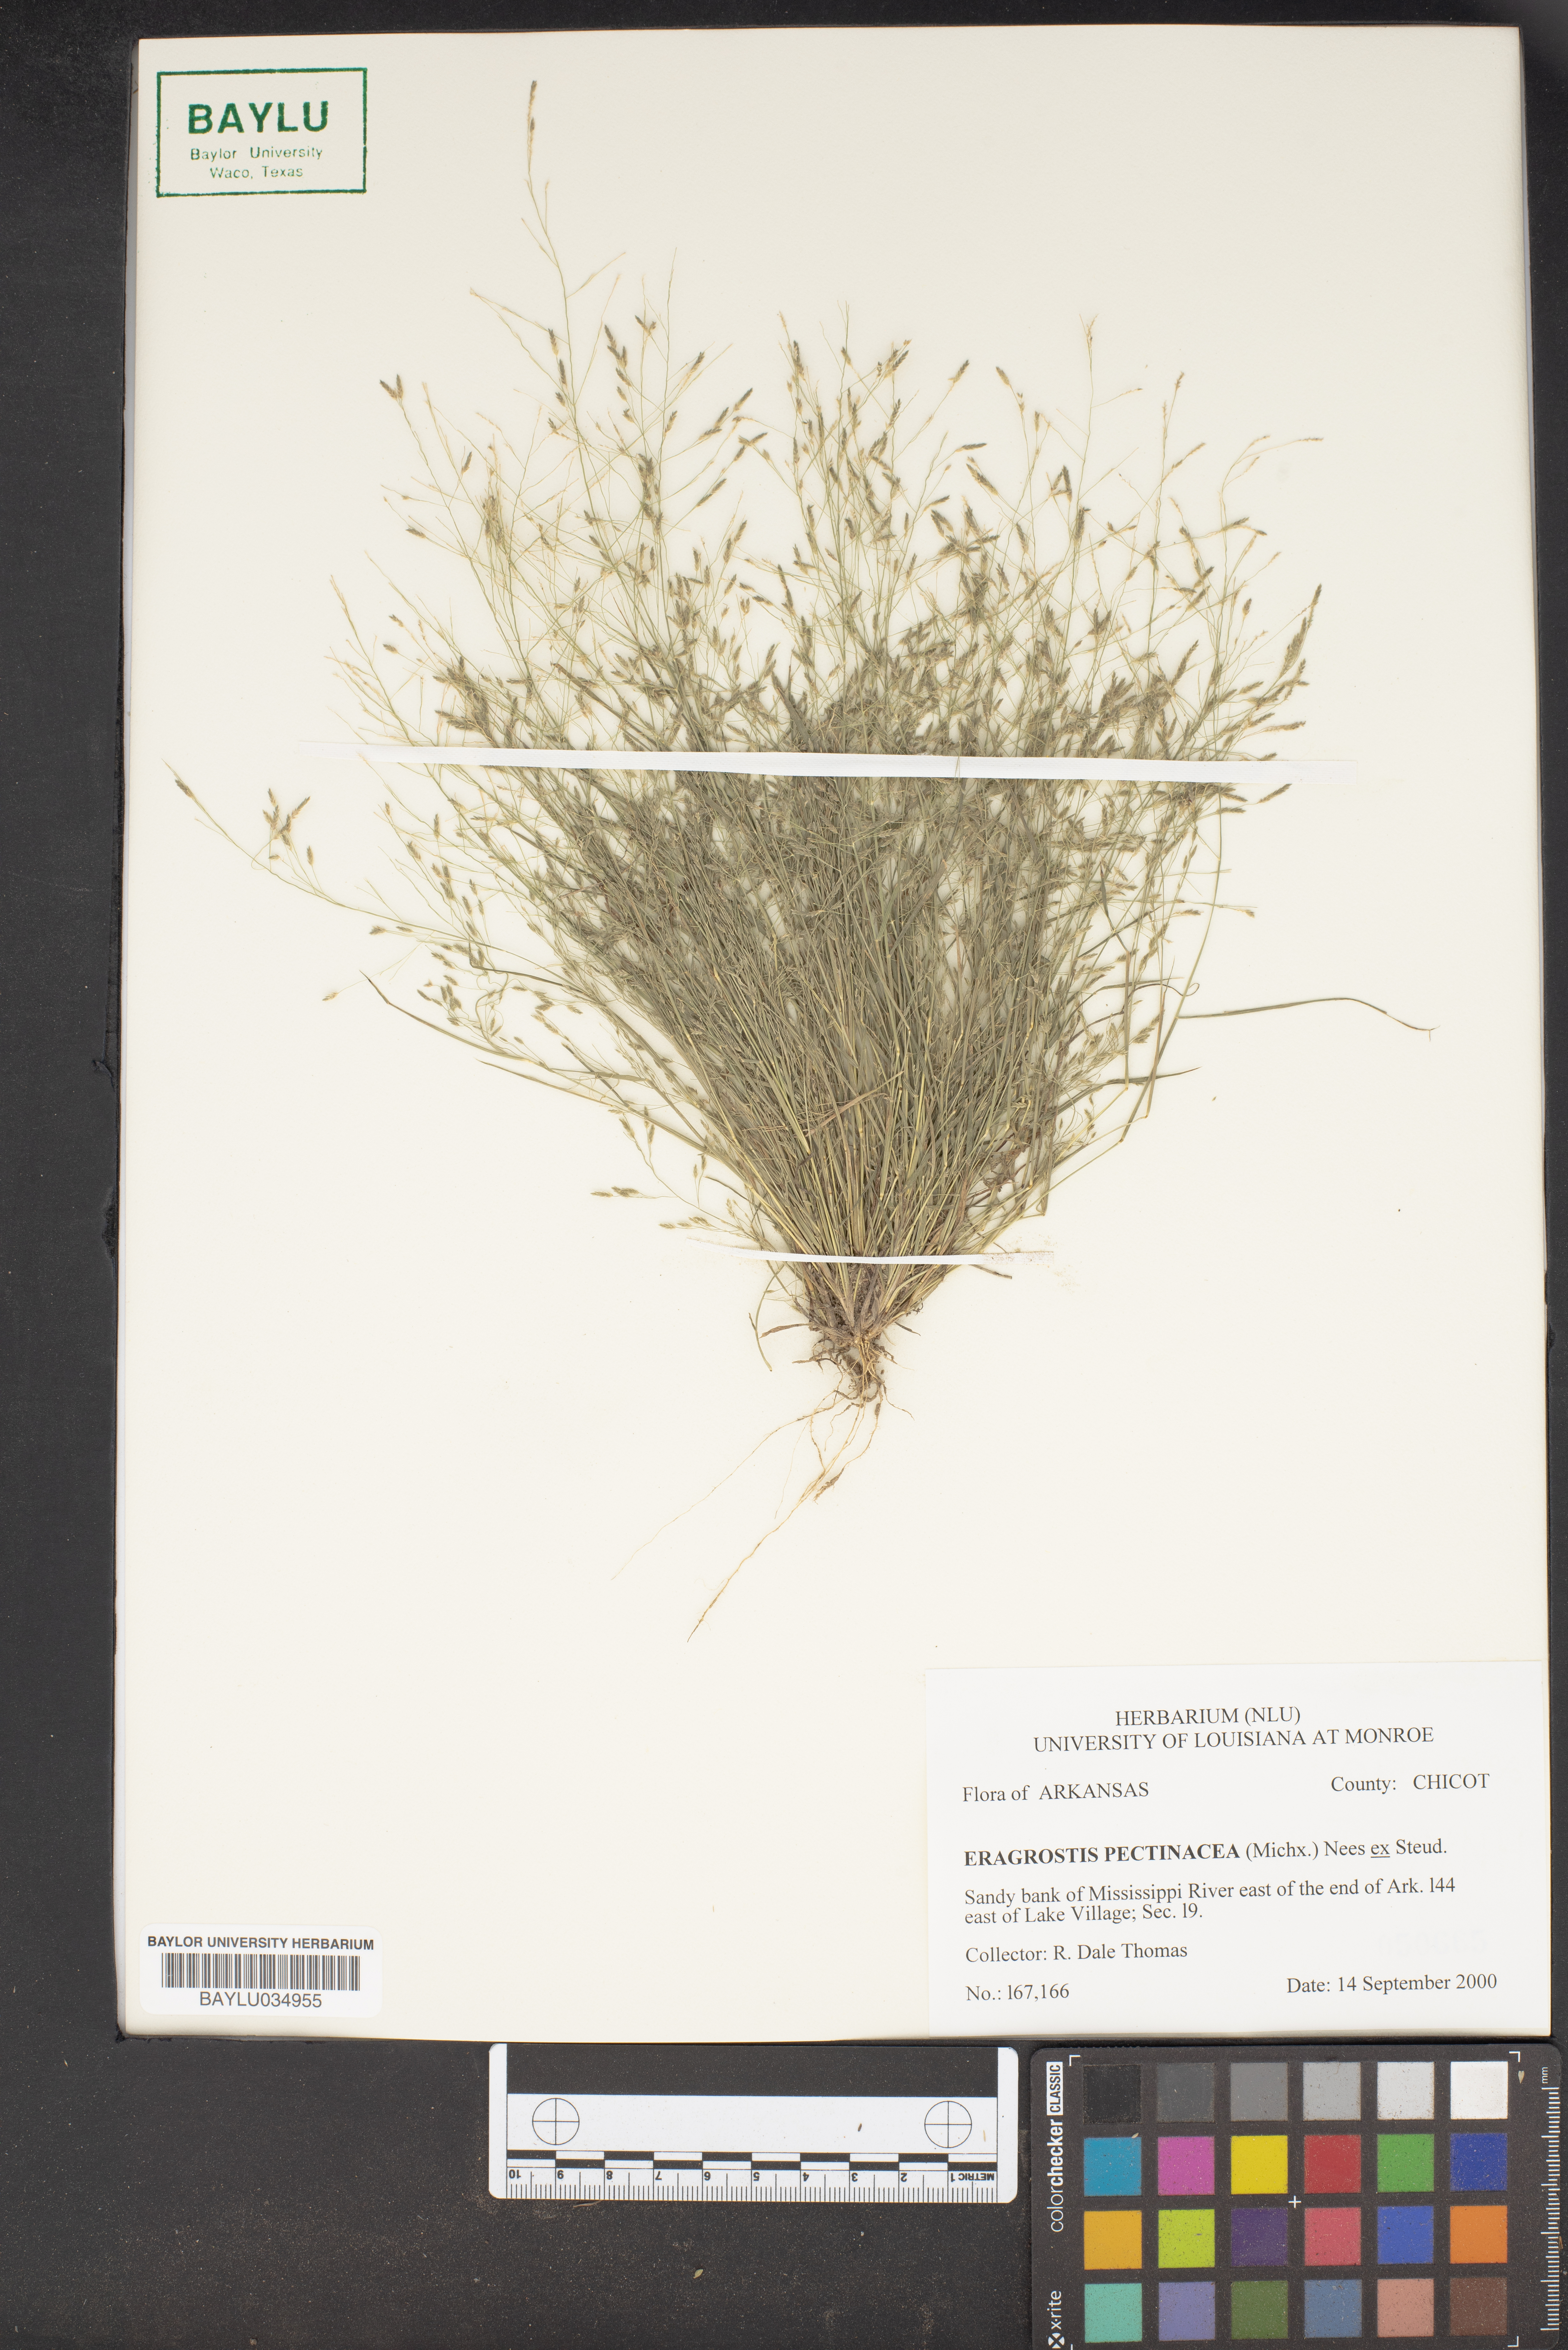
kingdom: Plantae
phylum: Tracheophyta
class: Liliopsida
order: Poales
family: Poaceae
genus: Eragrostis
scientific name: Eragrostis pectinacea
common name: Tufted lovegrass
